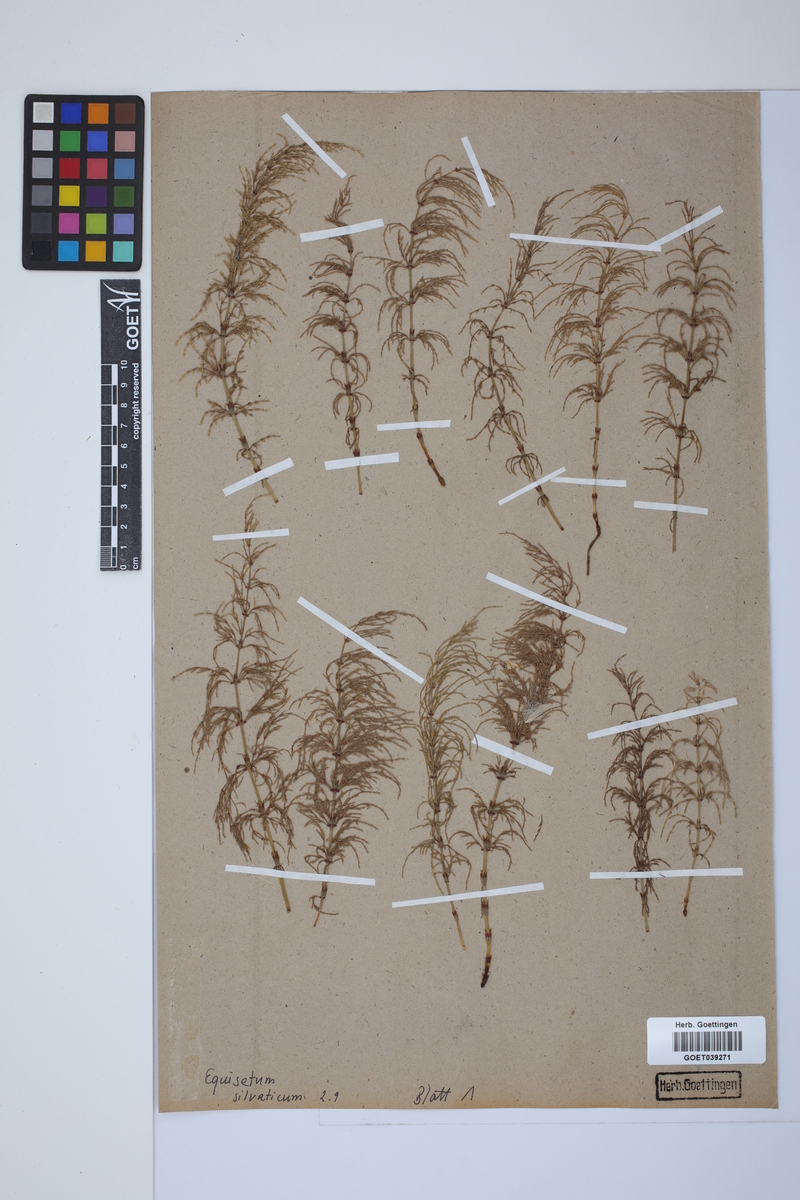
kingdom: Plantae
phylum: Tracheophyta
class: Polypodiopsida
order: Equisetales
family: Equisetaceae
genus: Equisetum
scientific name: Equisetum sylvaticum
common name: Wood horsetail
